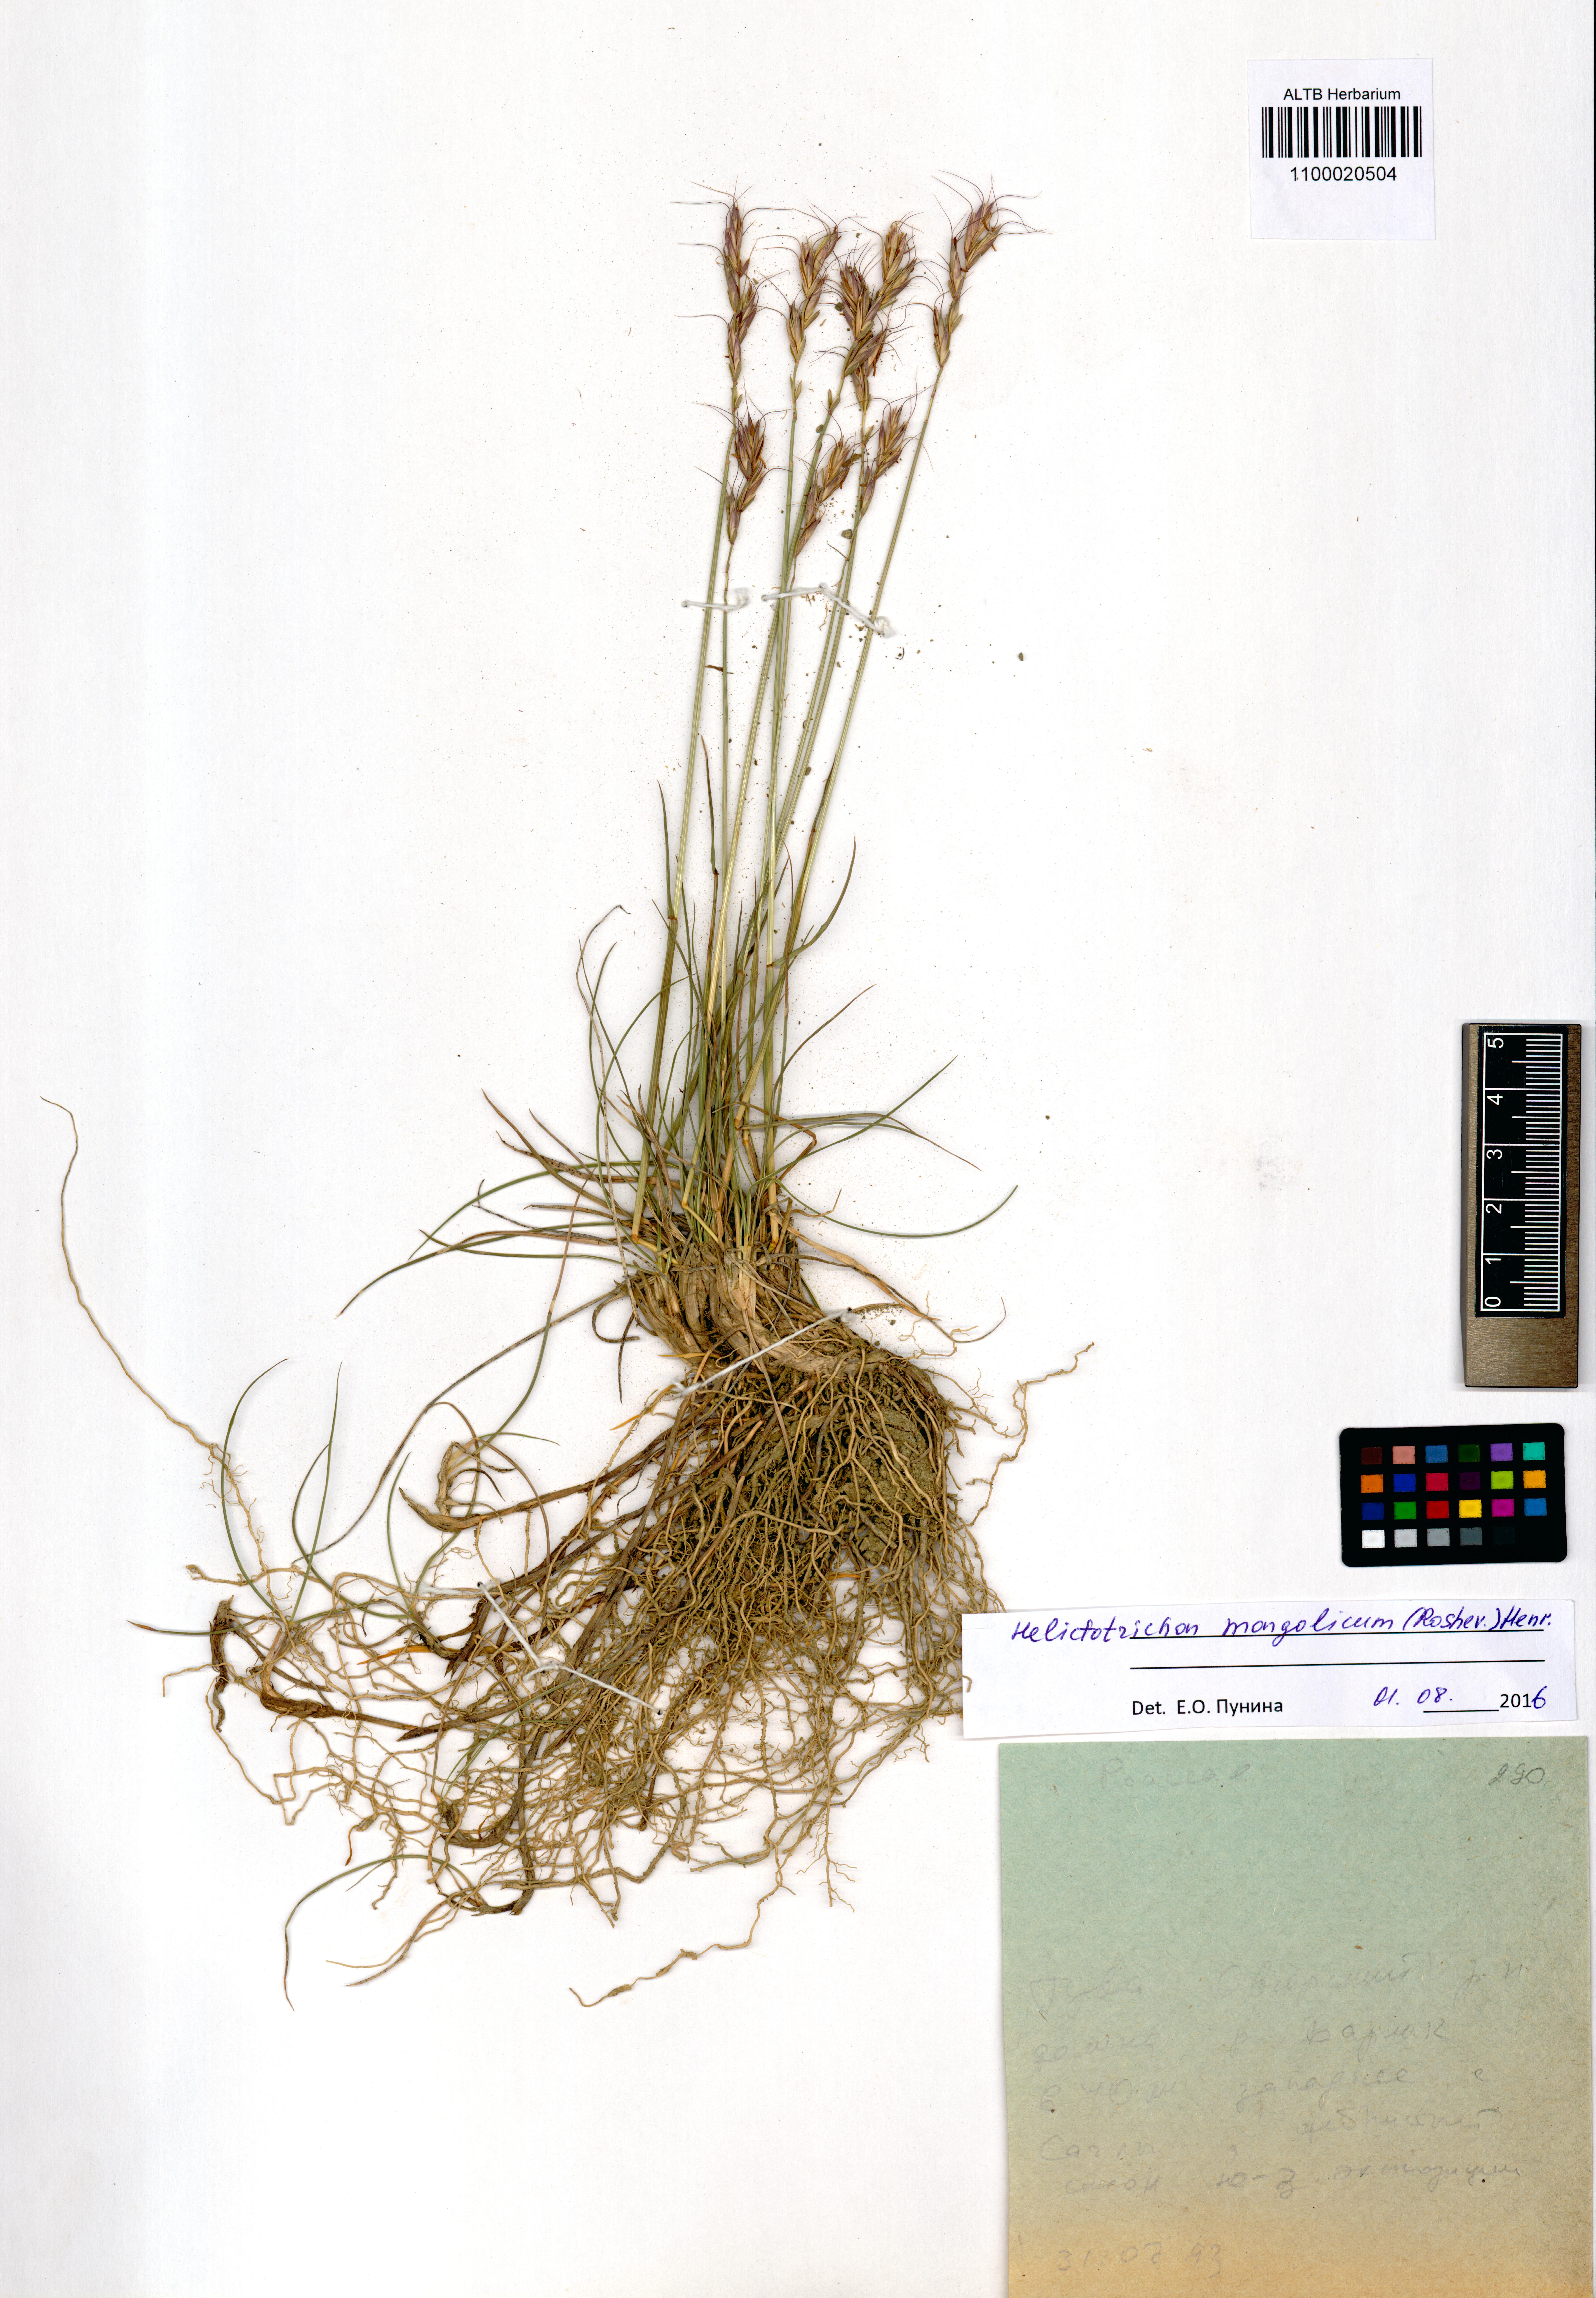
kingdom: Plantae
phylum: Tracheophyta
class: Liliopsida
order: Poales
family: Poaceae
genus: Helictotrichon
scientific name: Helictotrichon mongolicum
